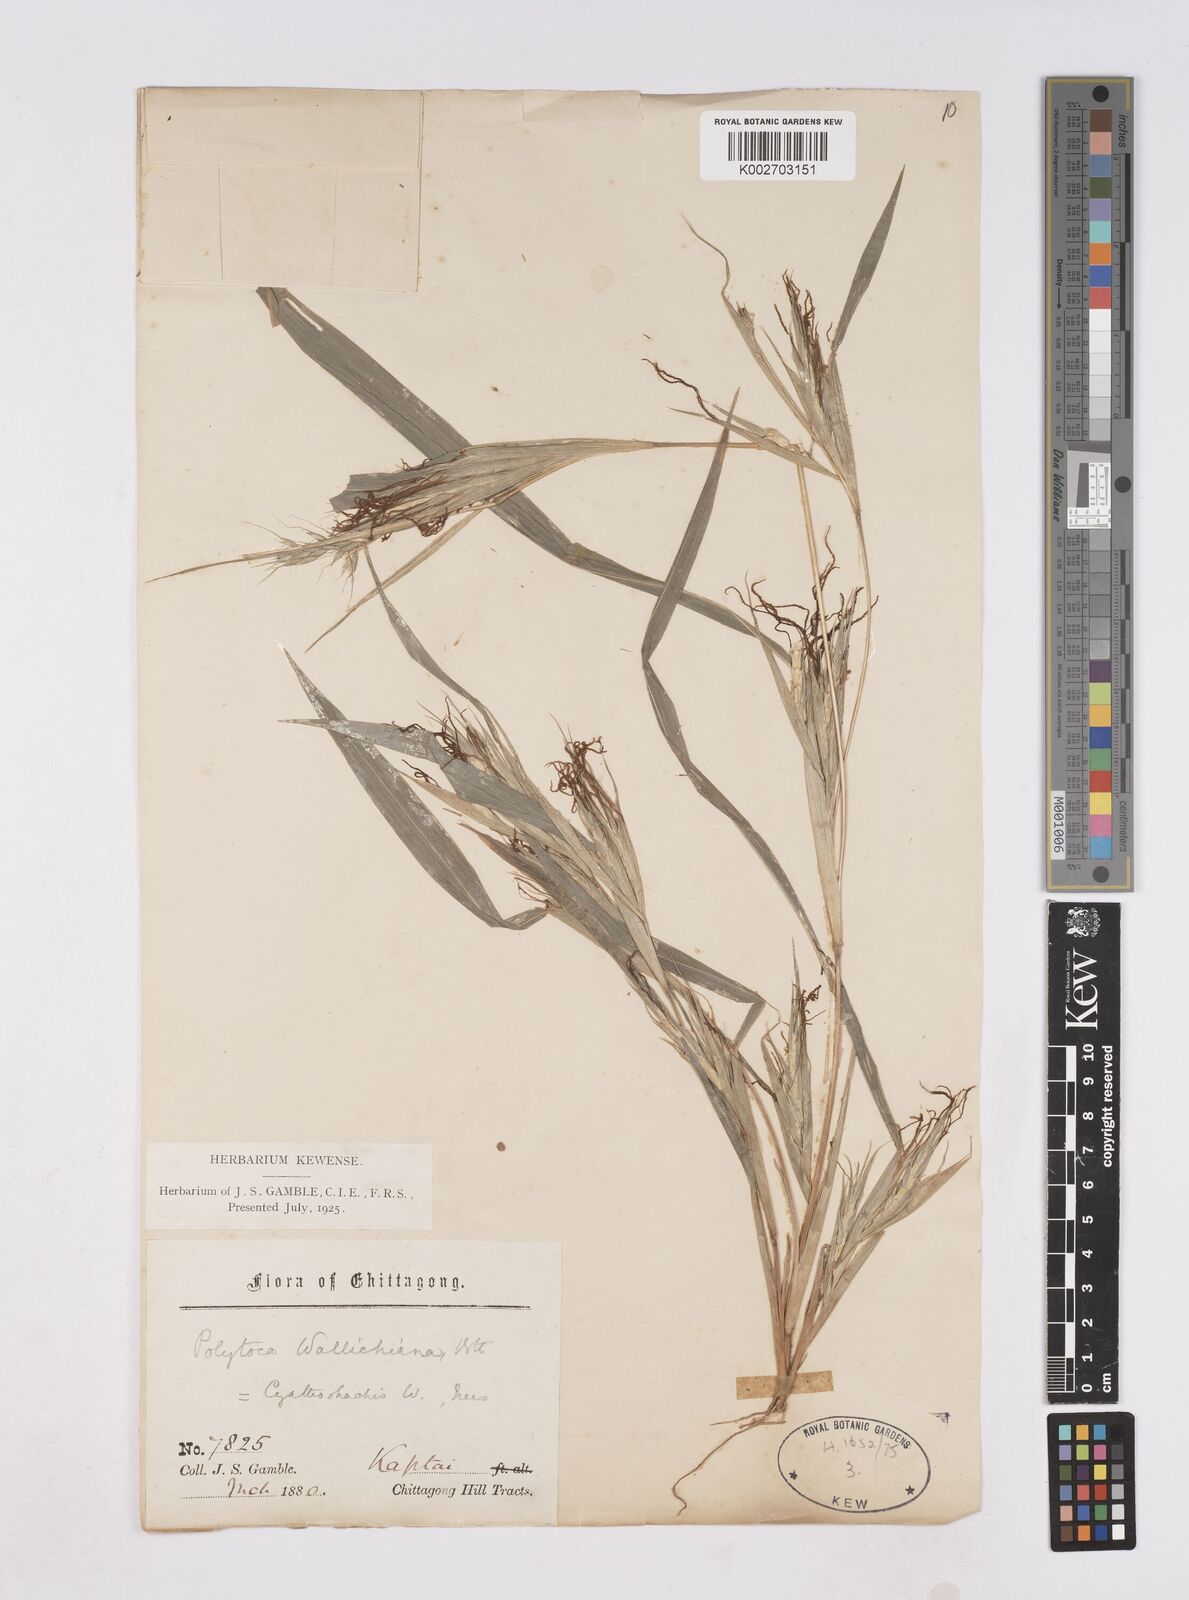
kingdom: Plantae
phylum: Tracheophyta
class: Liliopsida
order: Poales
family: Poaceae
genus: Polytoca
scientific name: Polytoca wallichiana
